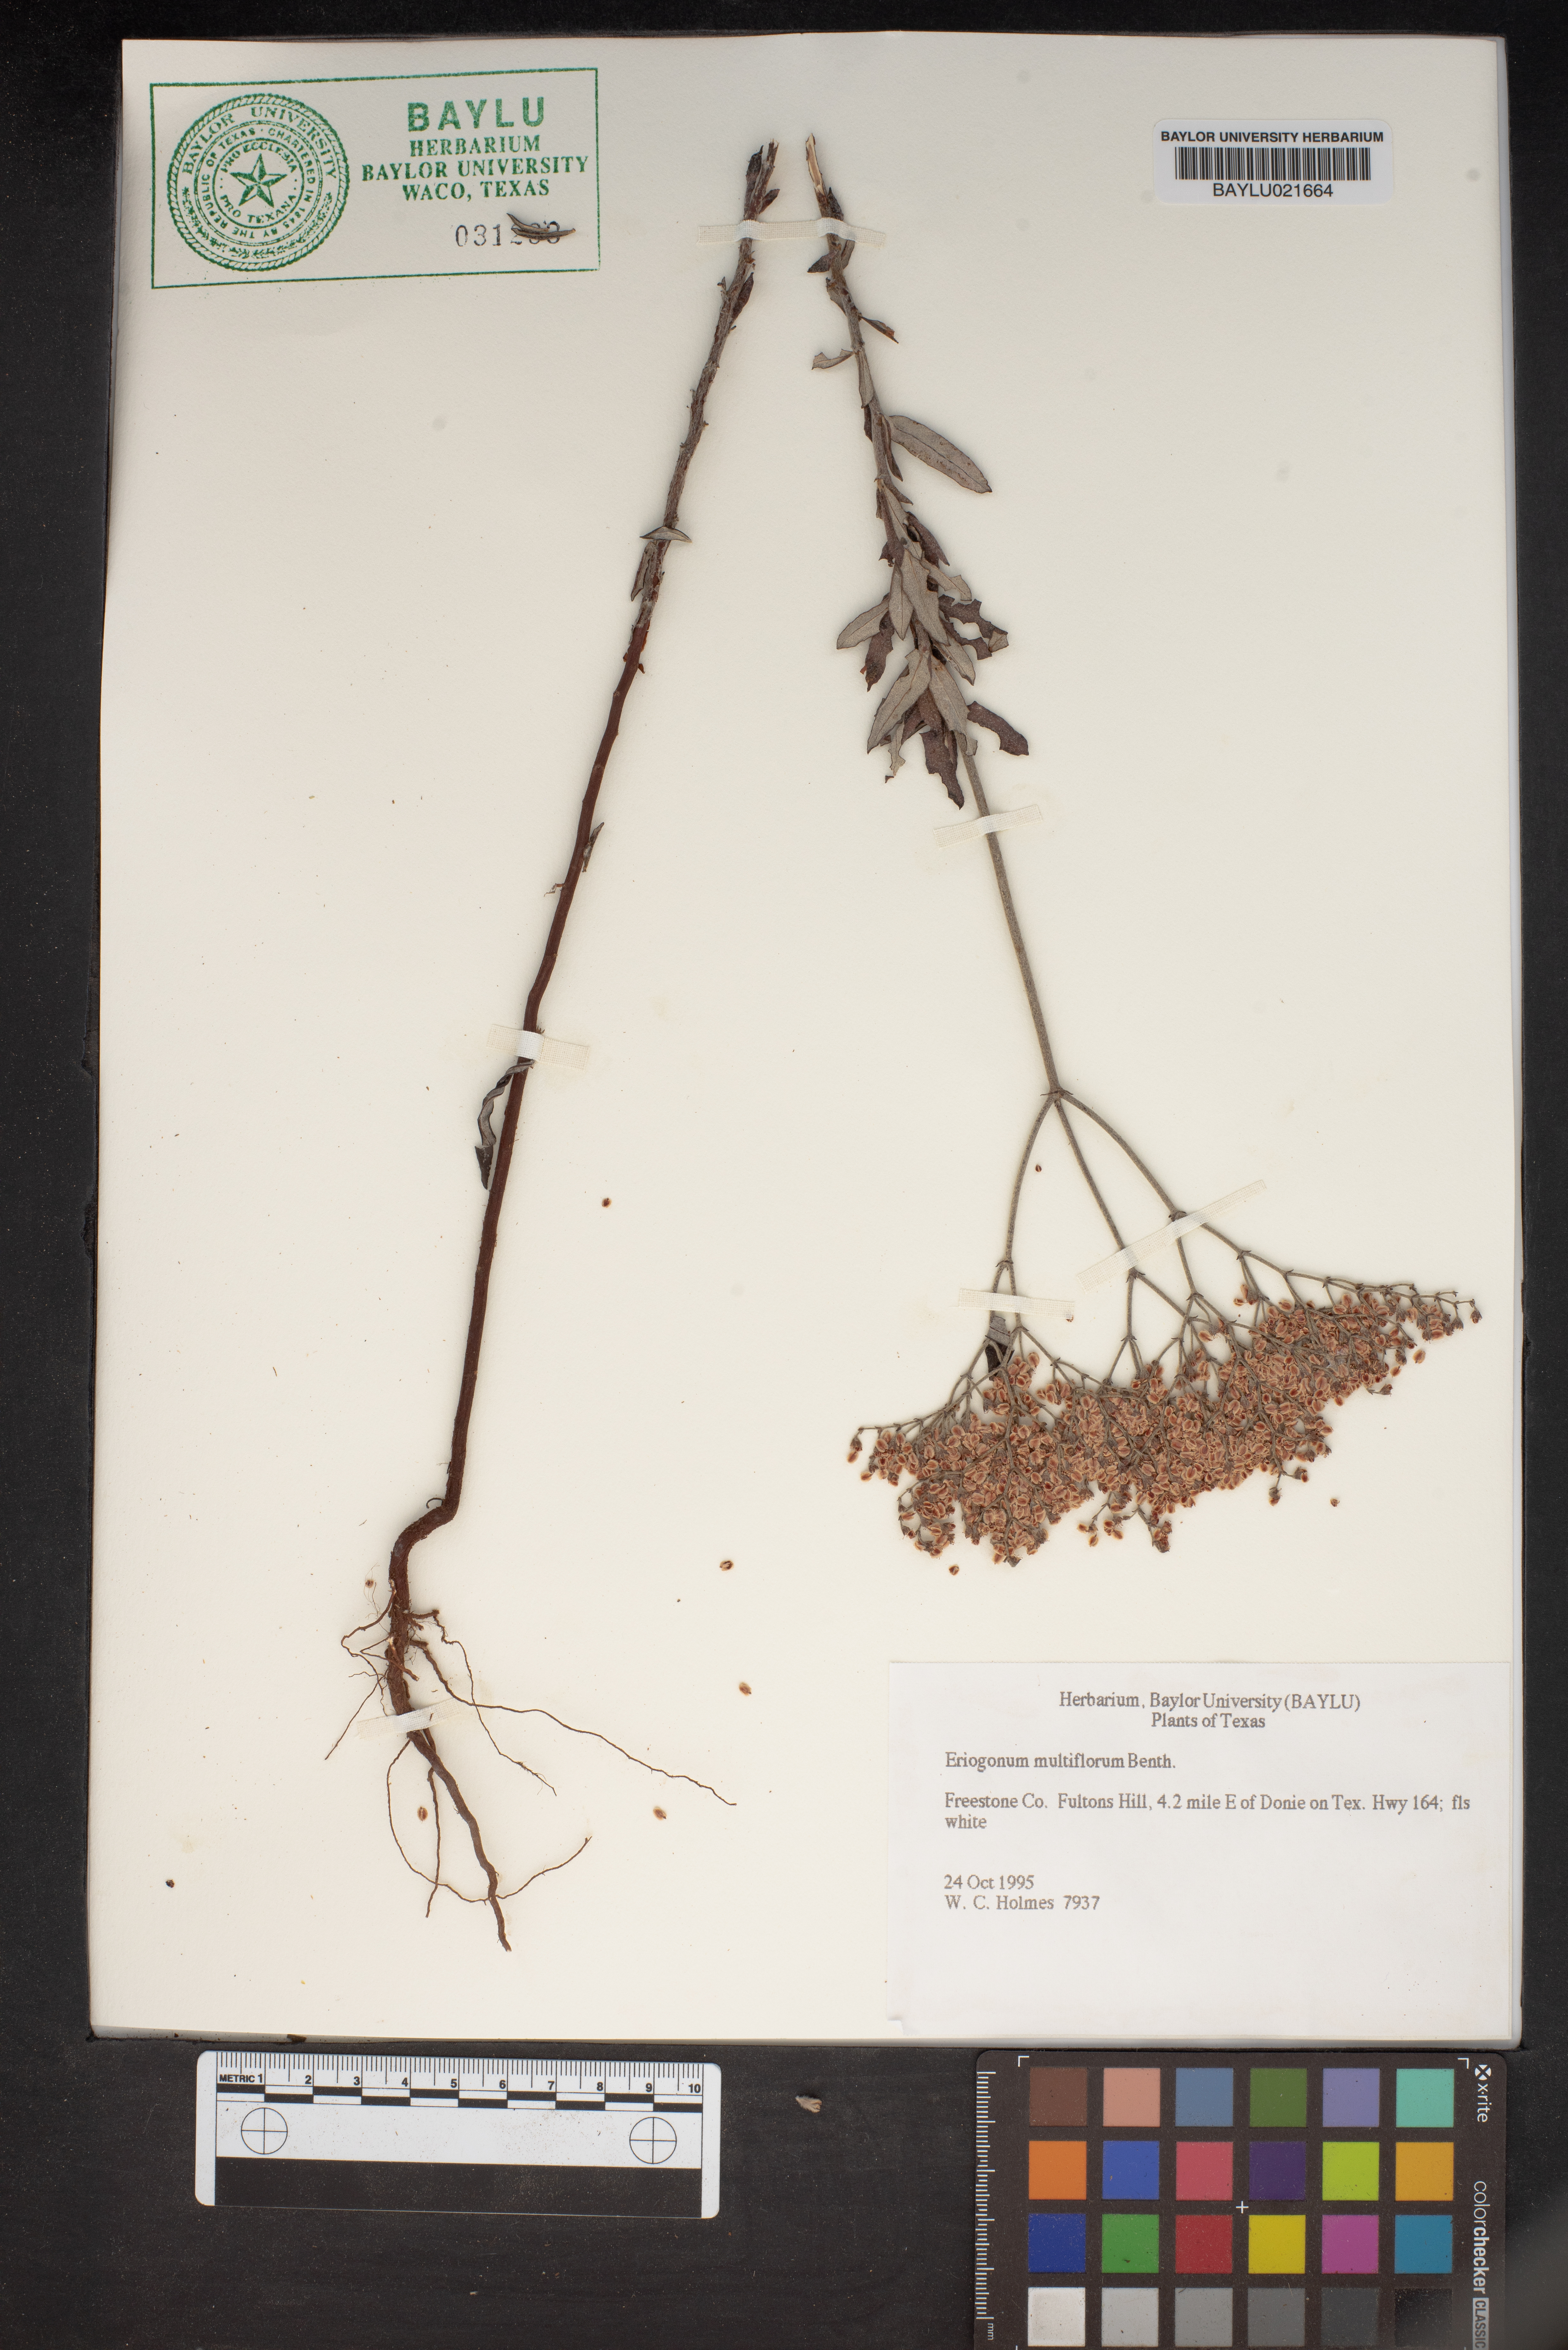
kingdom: Plantae
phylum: Tracheophyta
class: Magnoliopsida
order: Caryophyllales
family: Polygonaceae
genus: Eriogonum
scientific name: Eriogonum multiflorum
